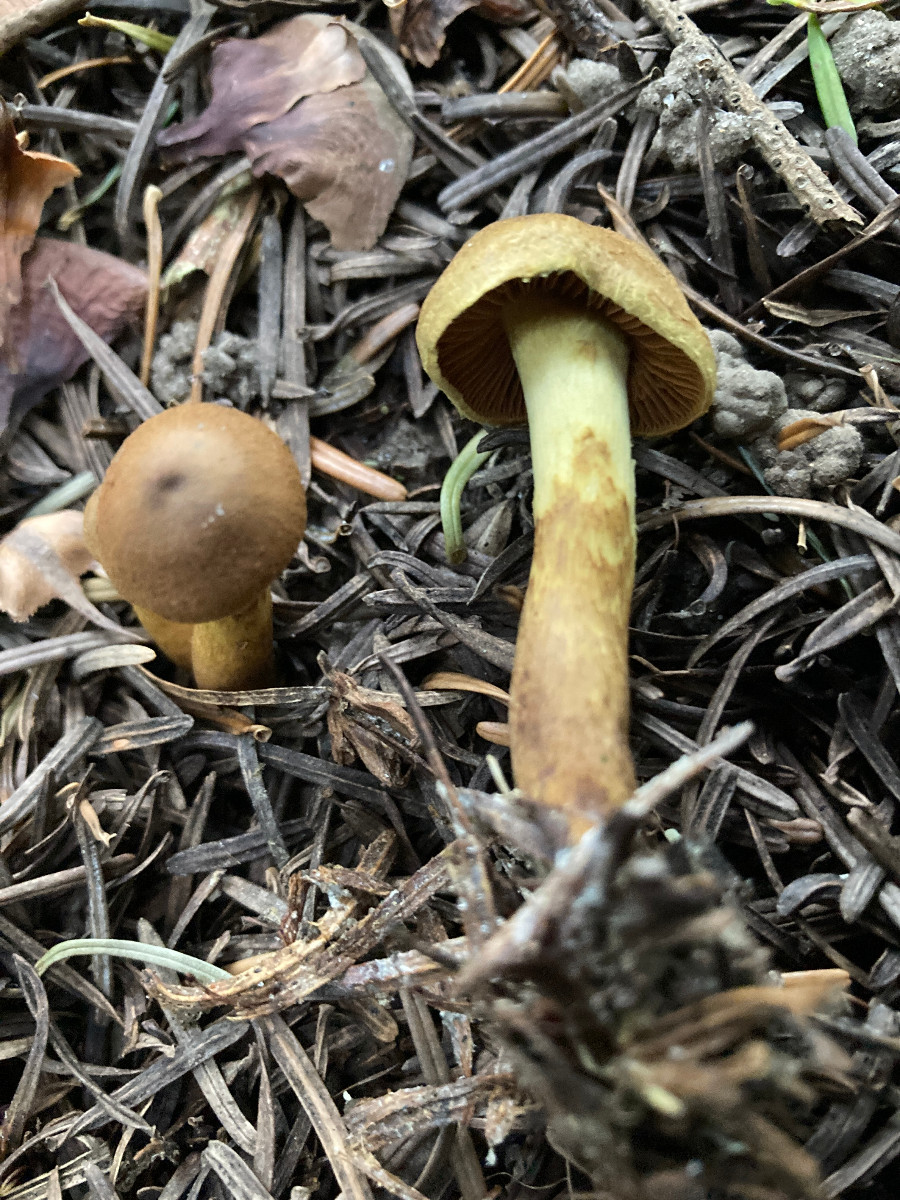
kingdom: Fungi
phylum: Basidiomycota
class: Agaricomycetes
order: Agaricales
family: Cortinariaceae
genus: Cortinarius
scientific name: Cortinarius cinnamomeus
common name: kanel-slørhat
